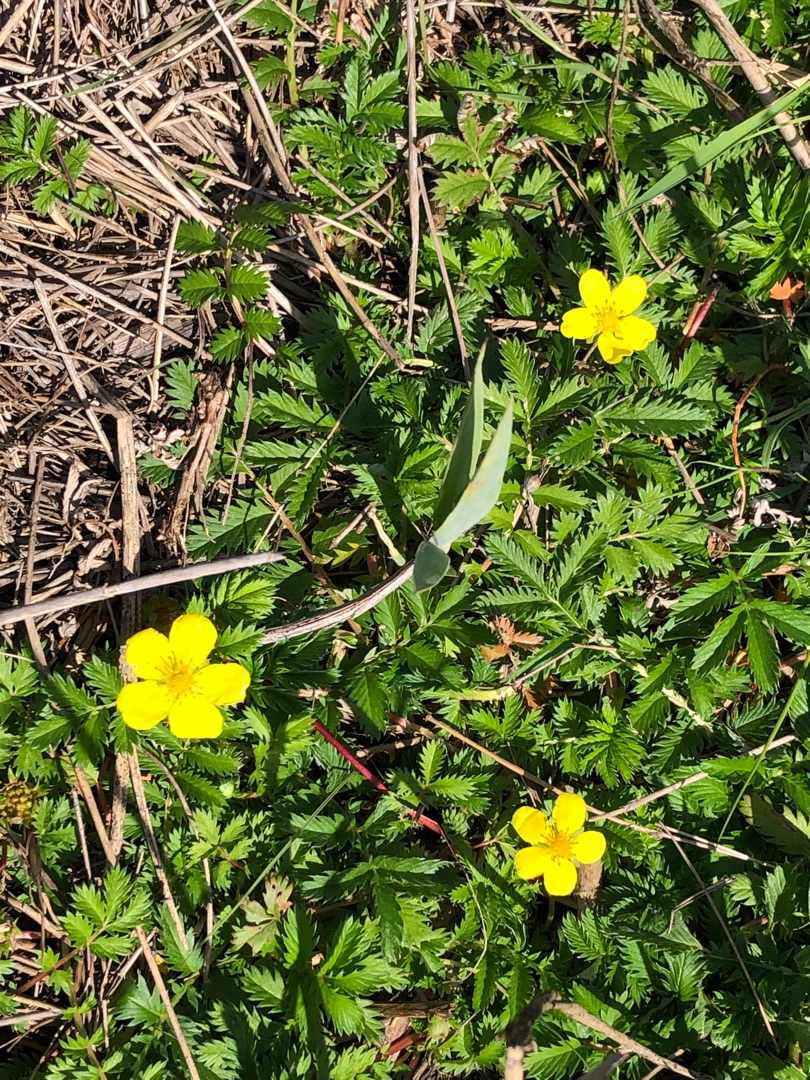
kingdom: Plantae
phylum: Tracheophyta
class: Magnoliopsida
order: Rosales
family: Rosaceae
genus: Argentina
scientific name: Argentina anserina
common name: Gåsepotentil
